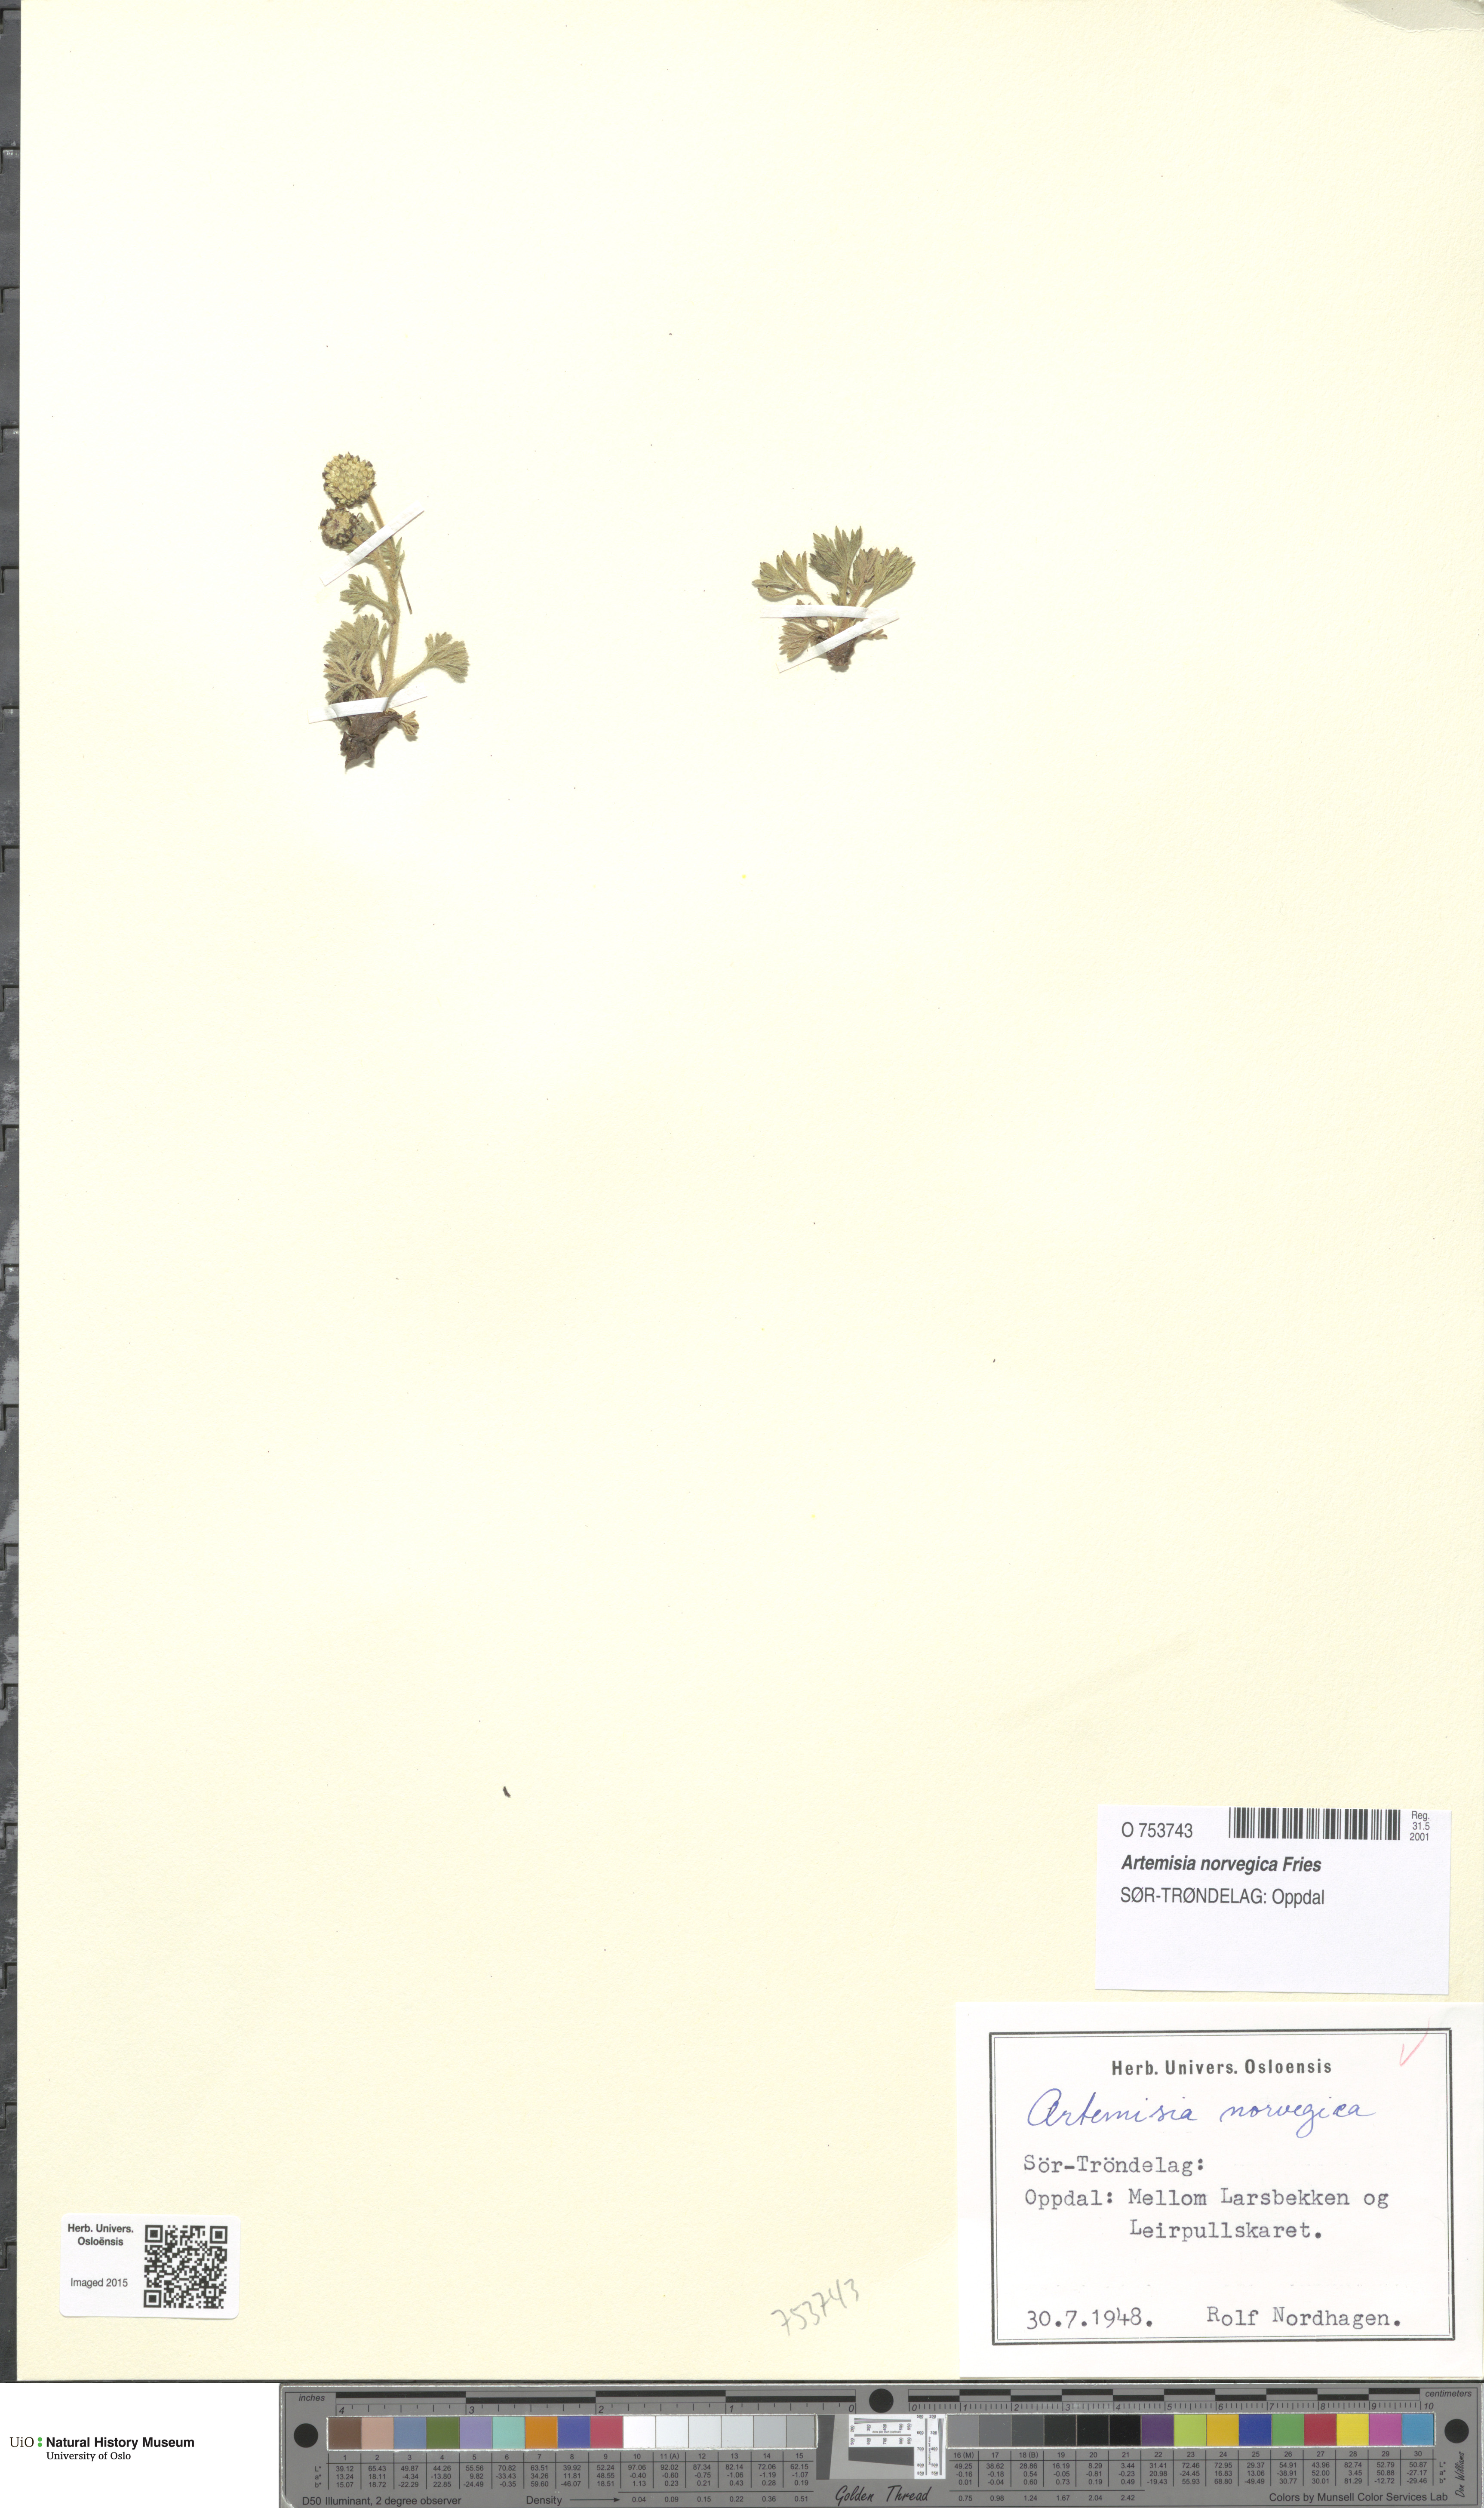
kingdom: Plantae
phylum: Tracheophyta
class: Magnoliopsida
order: Asterales
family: Asteraceae
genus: Artemisia
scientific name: Artemisia norvegica
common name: Norwegian mugwort
